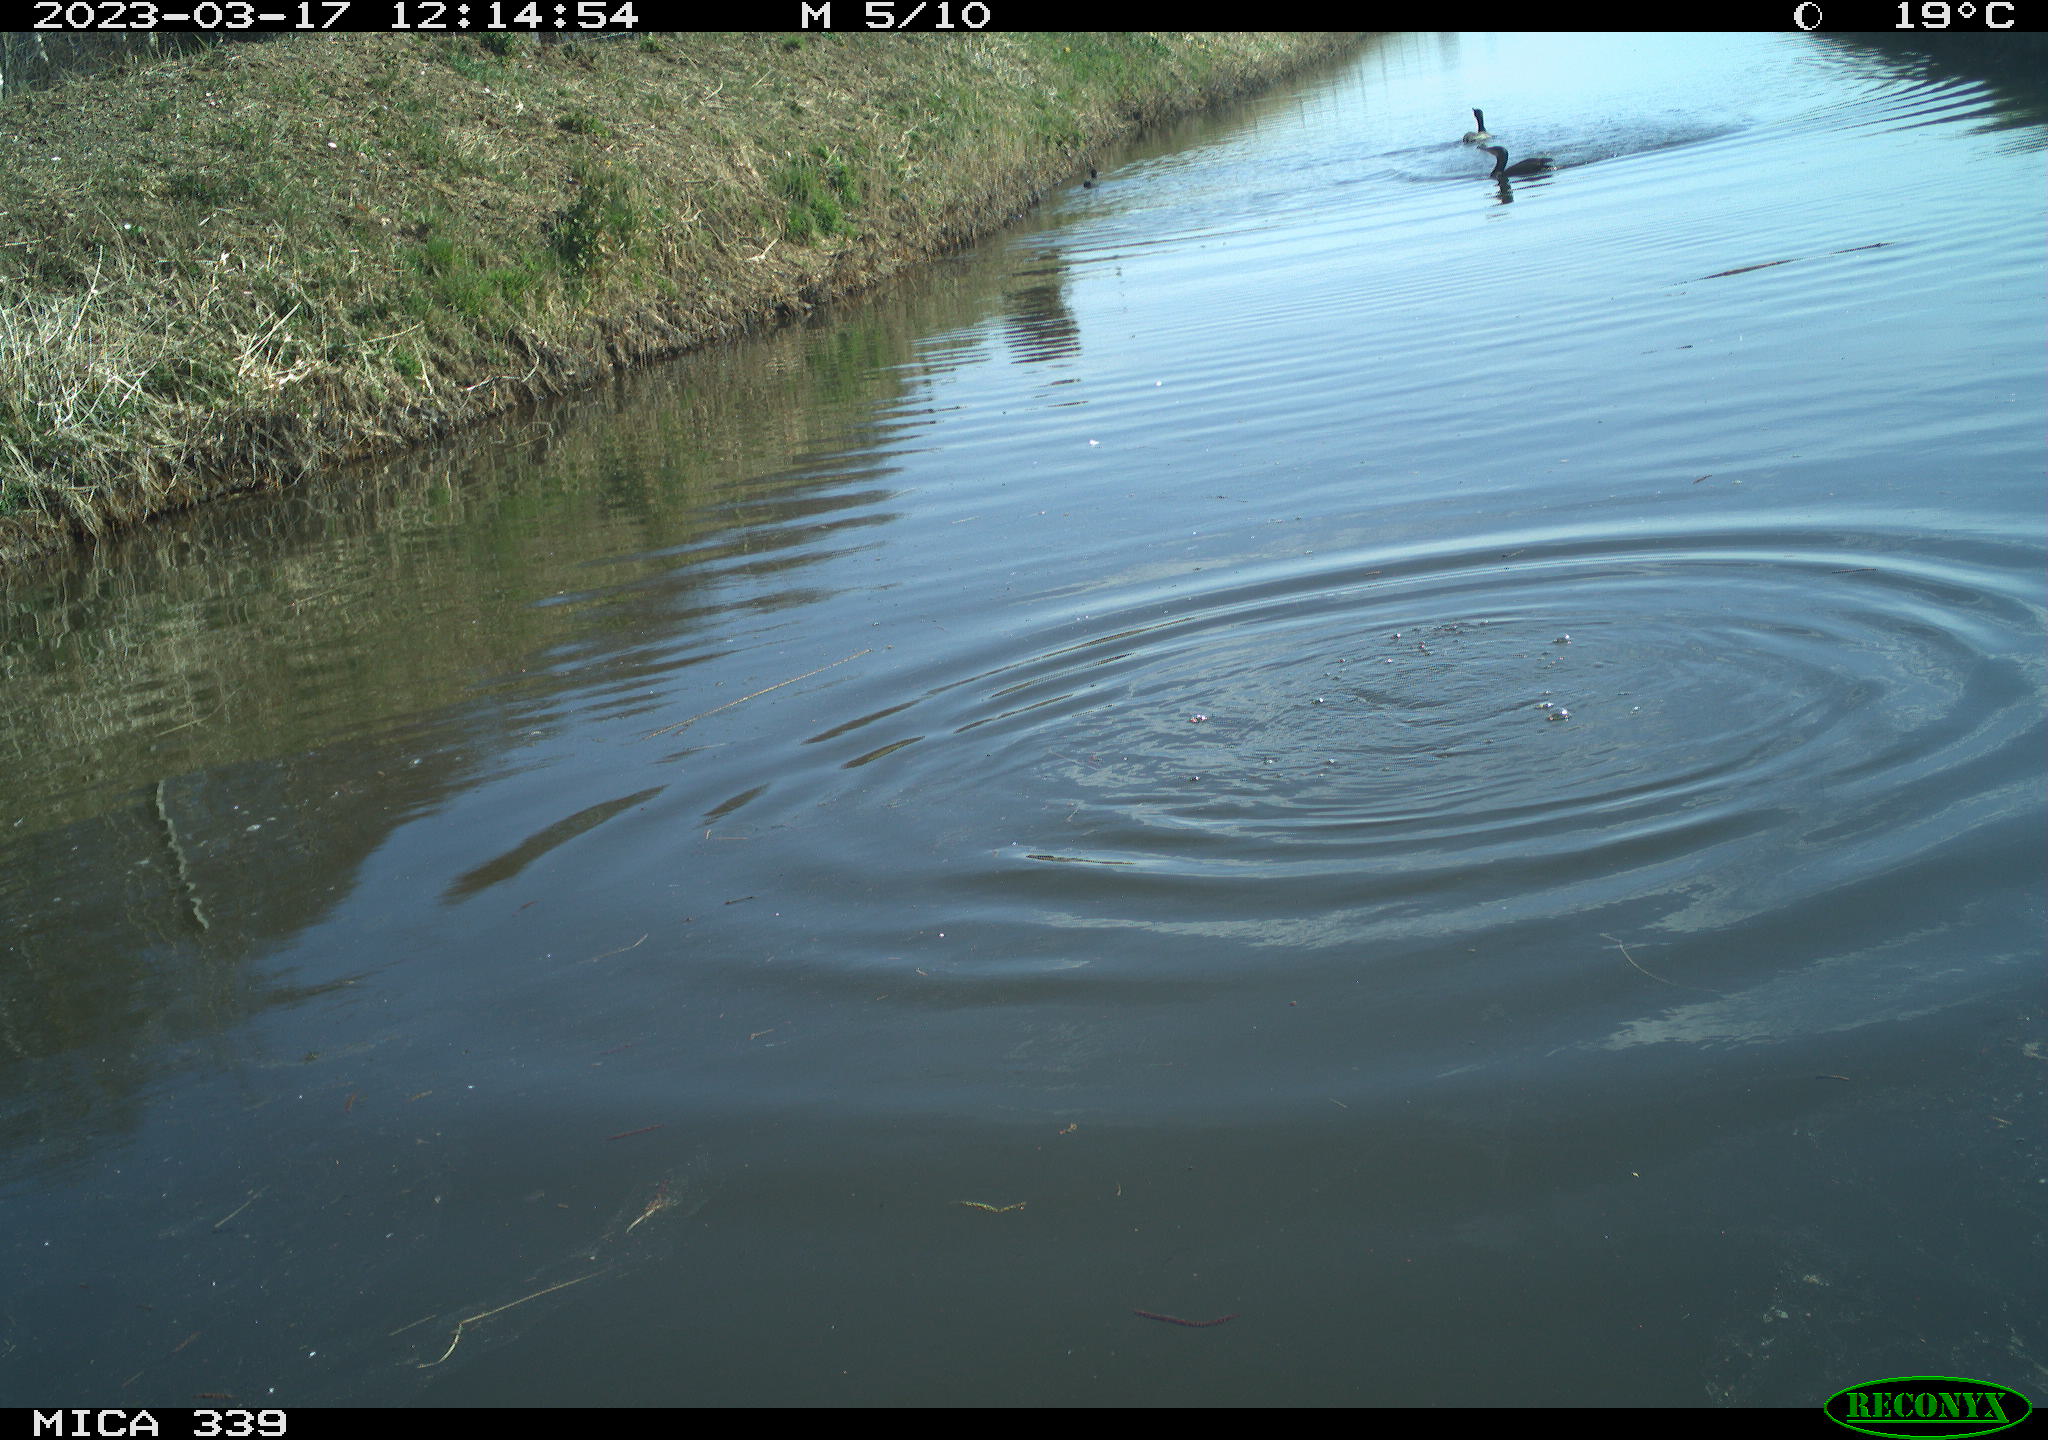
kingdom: Animalia
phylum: Chordata
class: Aves
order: Suliformes
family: Phalacrocoracidae
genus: Phalacrocorax
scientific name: Phalacrocorax carbo
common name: Great cormorant
